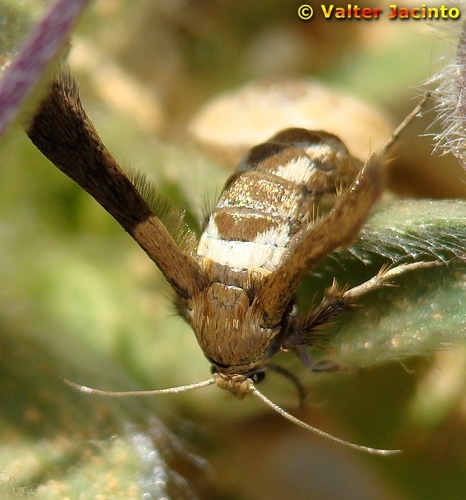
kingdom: Animalia
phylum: Arthropoda
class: Insecta
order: Lepidoptera
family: Sesiidae
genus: Microsphecia
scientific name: Microsphecia tineiformis
